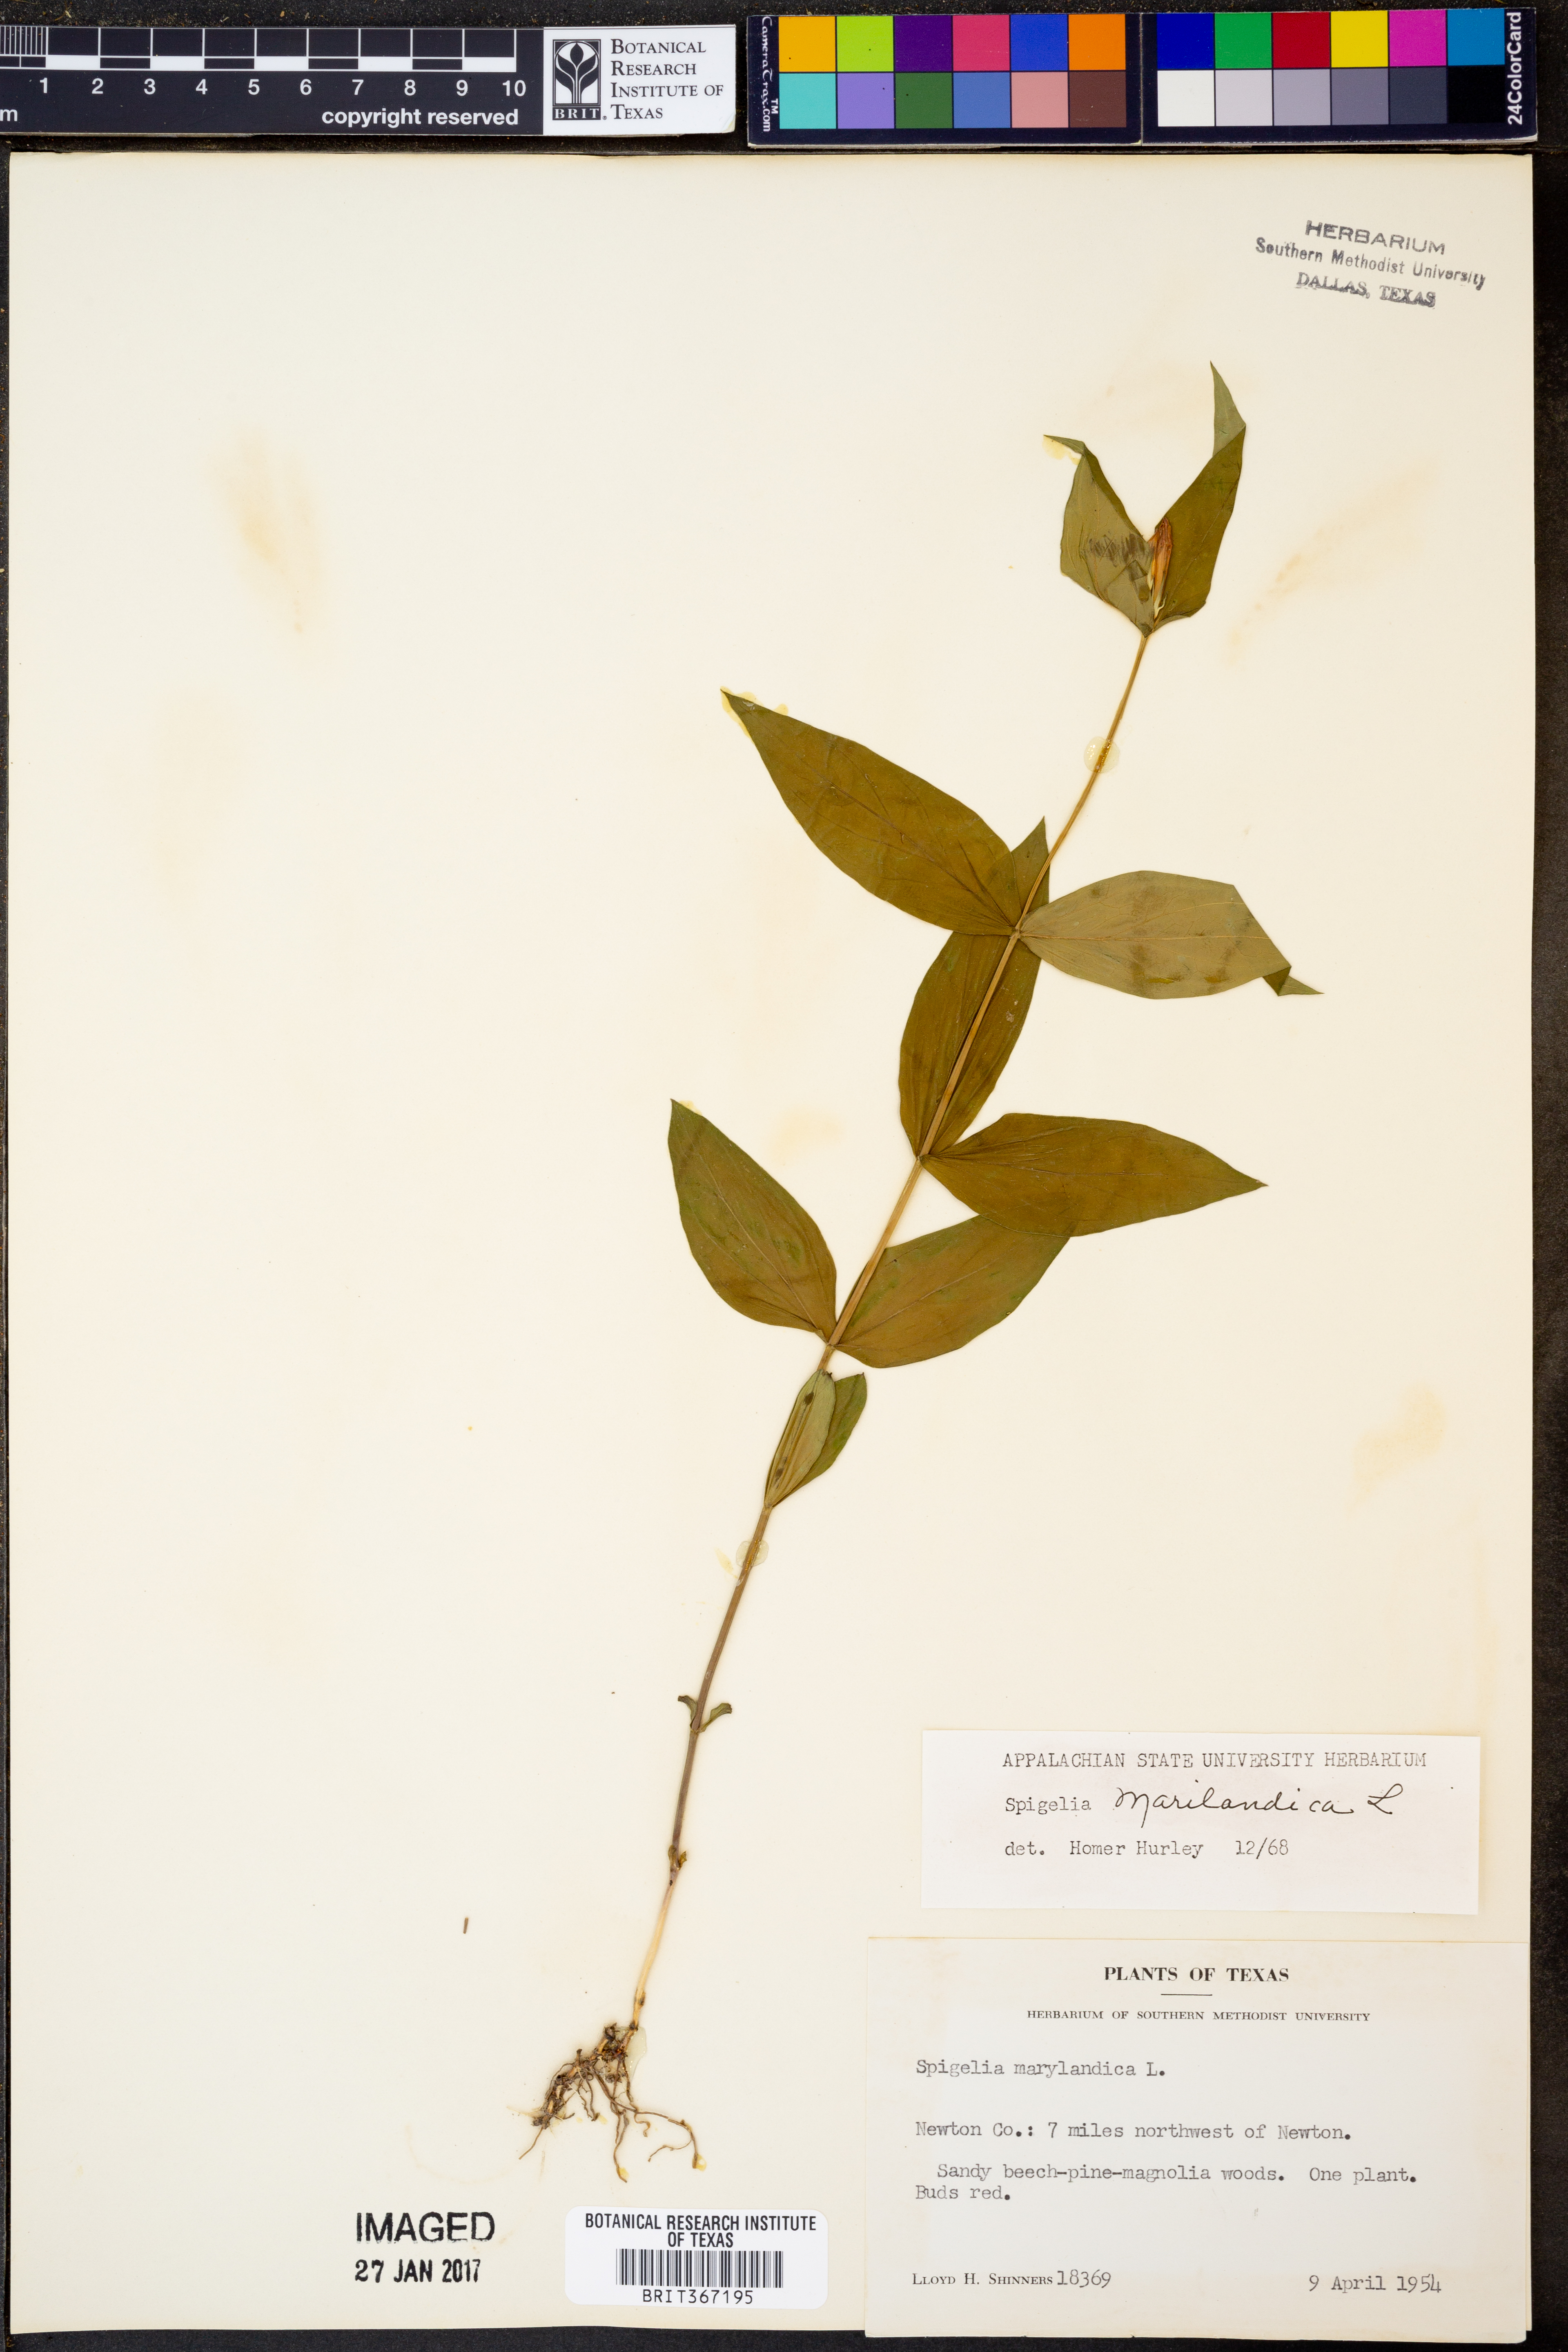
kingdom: Plantae
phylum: Tracheophyta
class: Magnoliopsida
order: Gentianales
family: Loganiaceae
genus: Spigelia
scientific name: Spigelia marilandica
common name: Indian-pink
